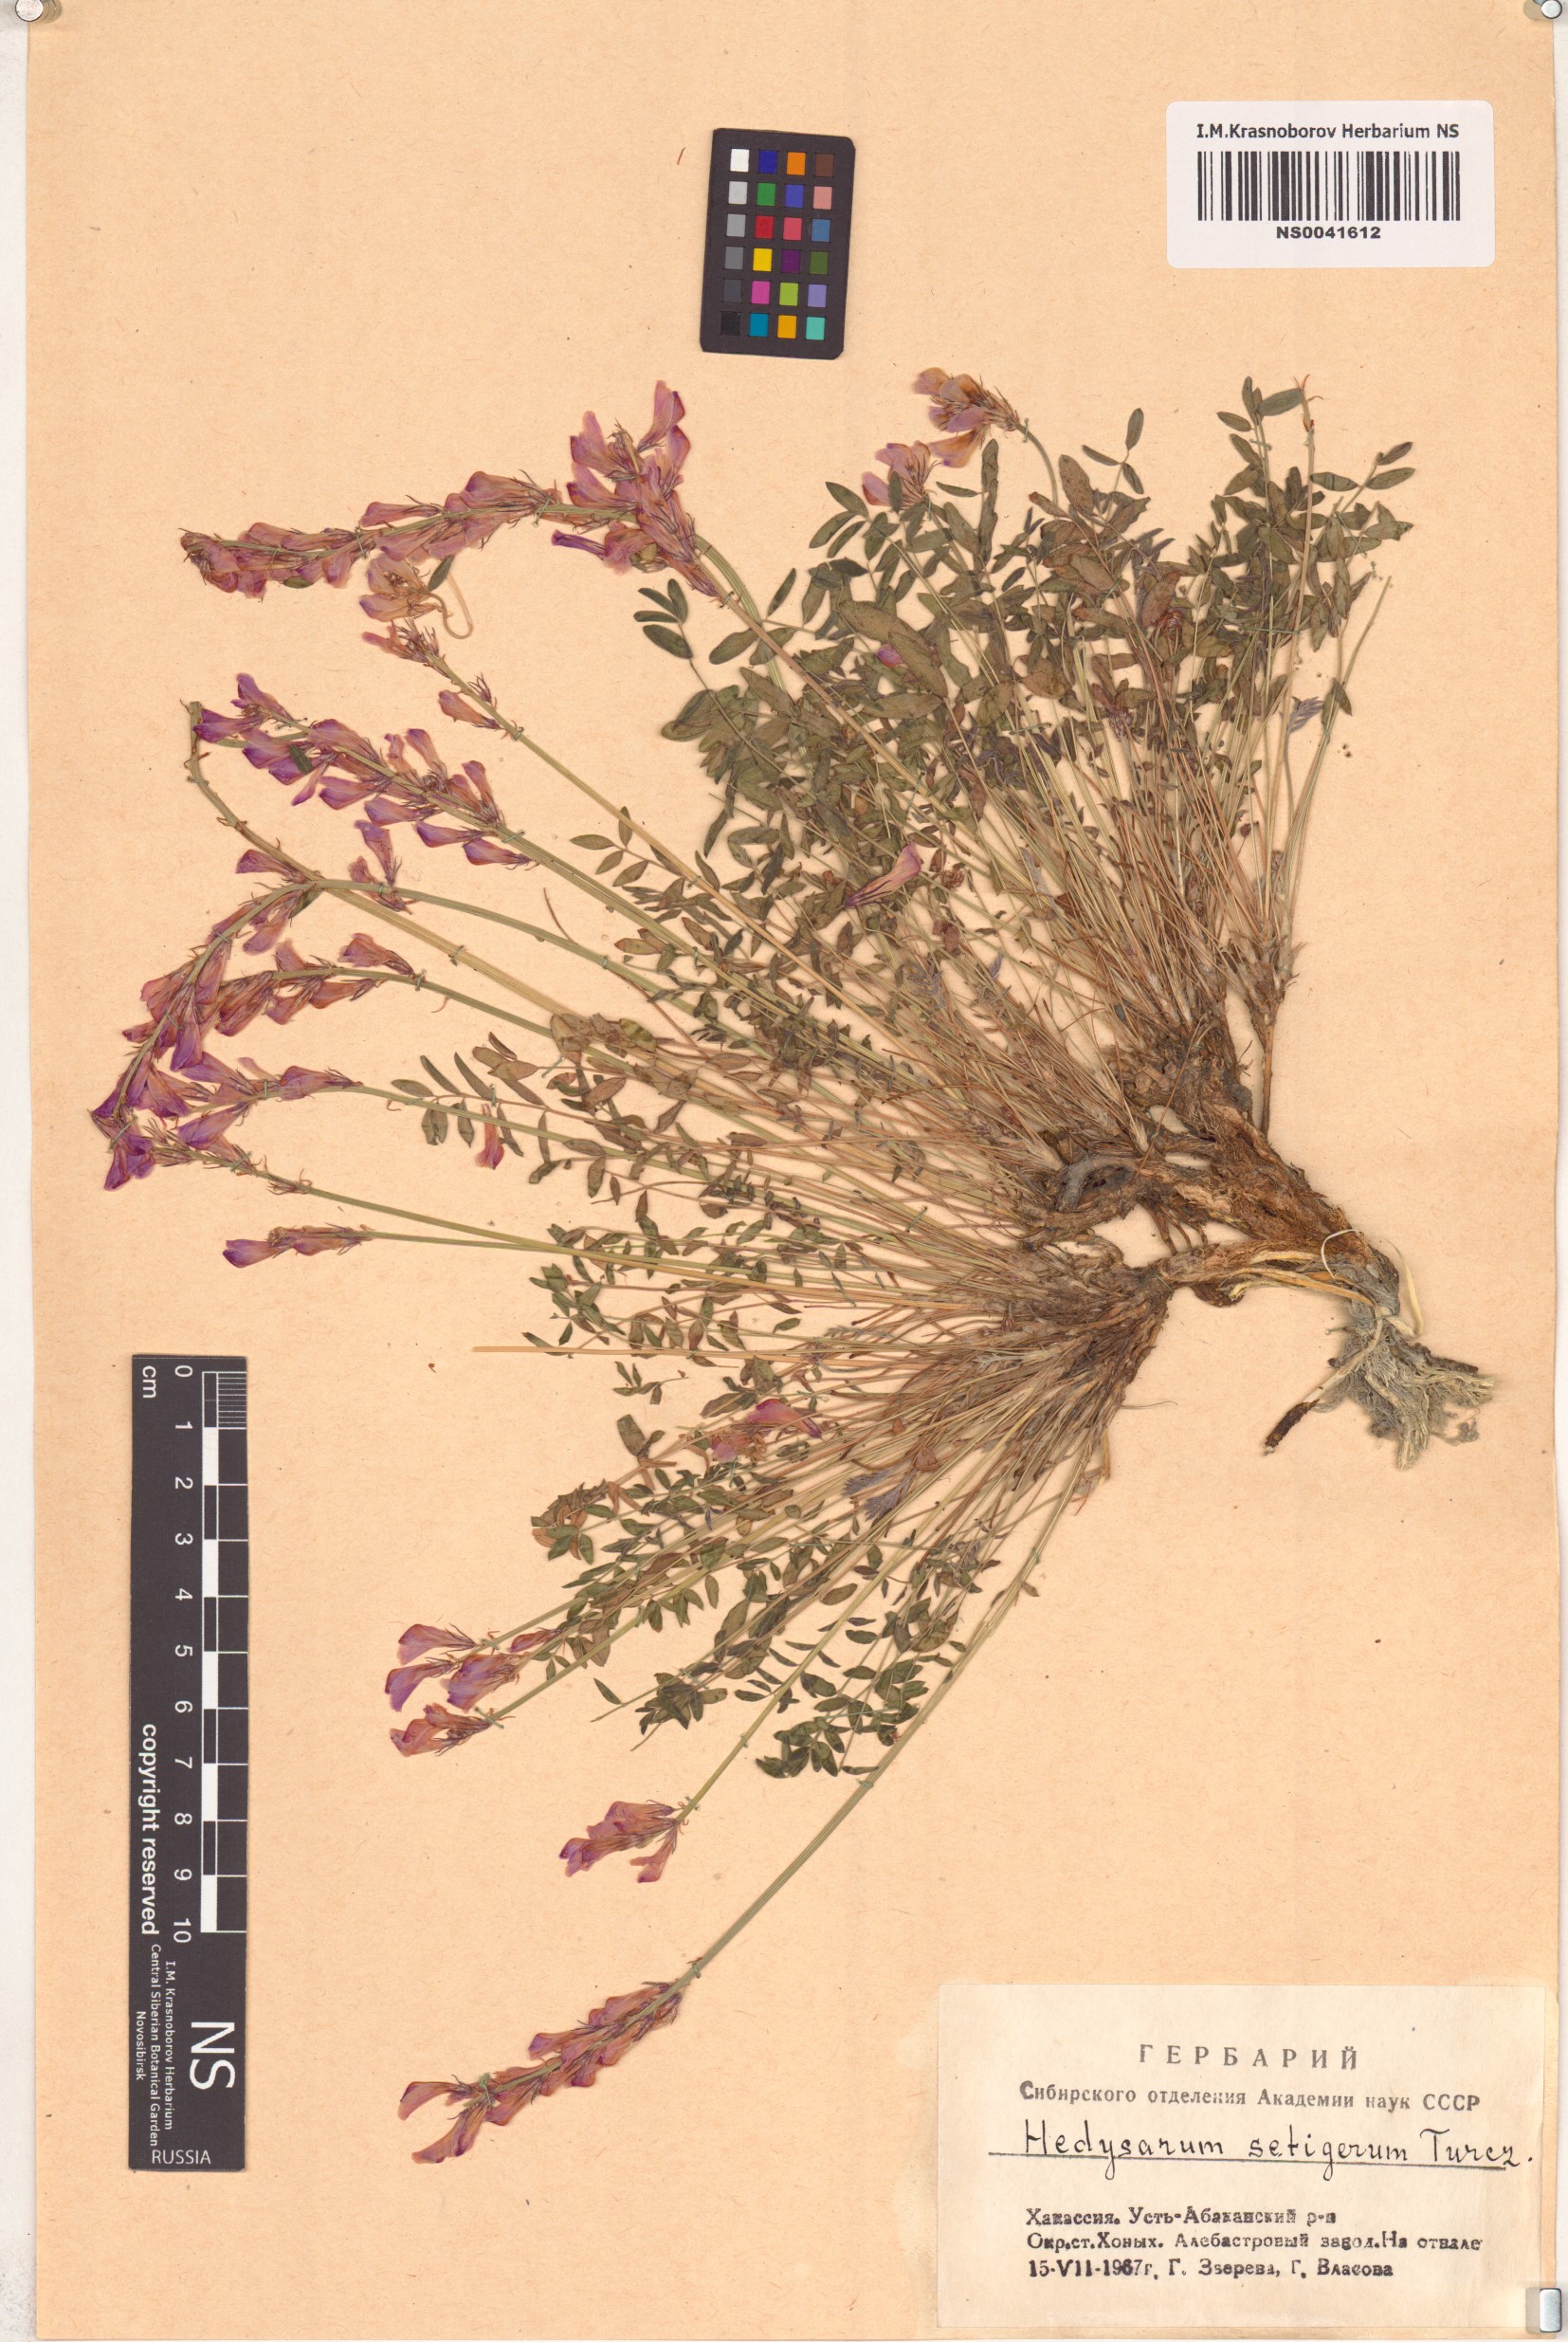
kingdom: Plantae
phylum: Tracheophyta
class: Magnoliopsida
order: Fabales
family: Fabaceae
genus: Hedysarum
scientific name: Hedysarum setigerum
